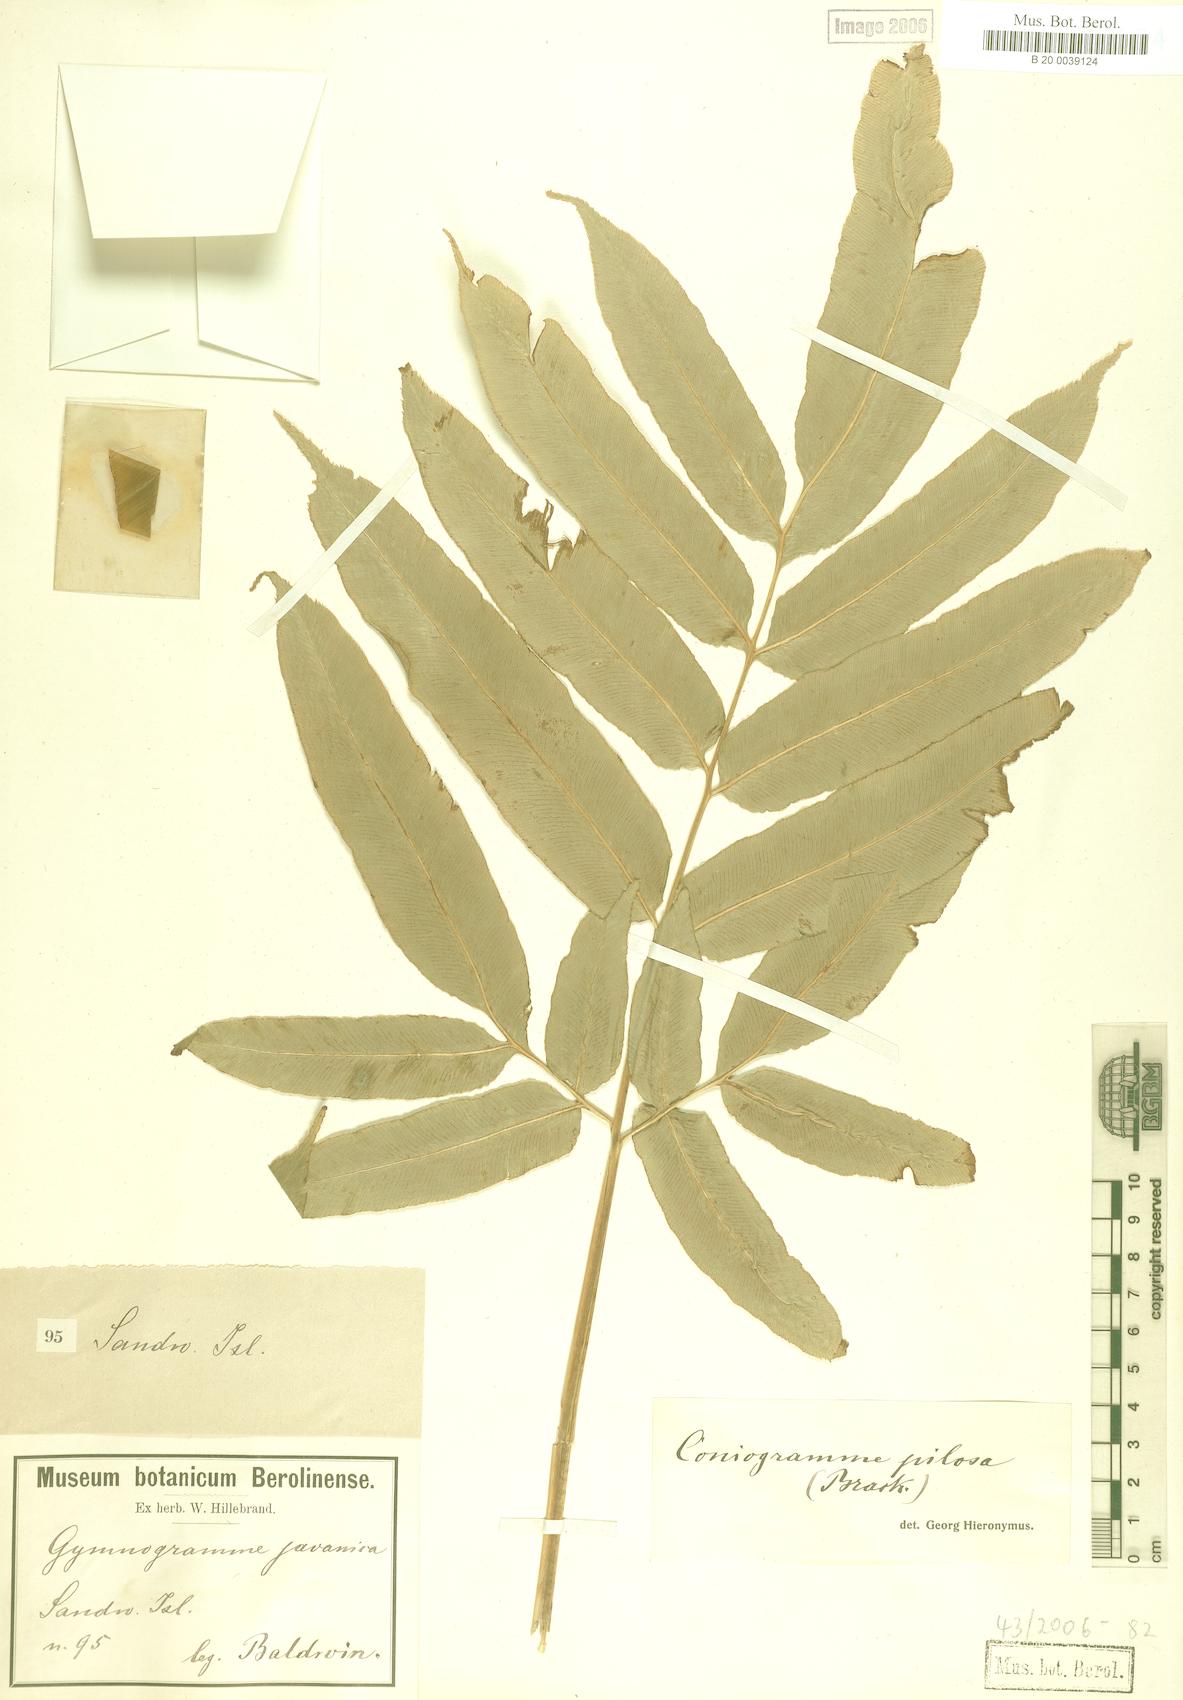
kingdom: Plantae
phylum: Tracheophyta
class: Polypodiopsida
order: Polypodiales
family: Pteridaceae
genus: Coniogramme
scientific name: Coniogramme pilosa
